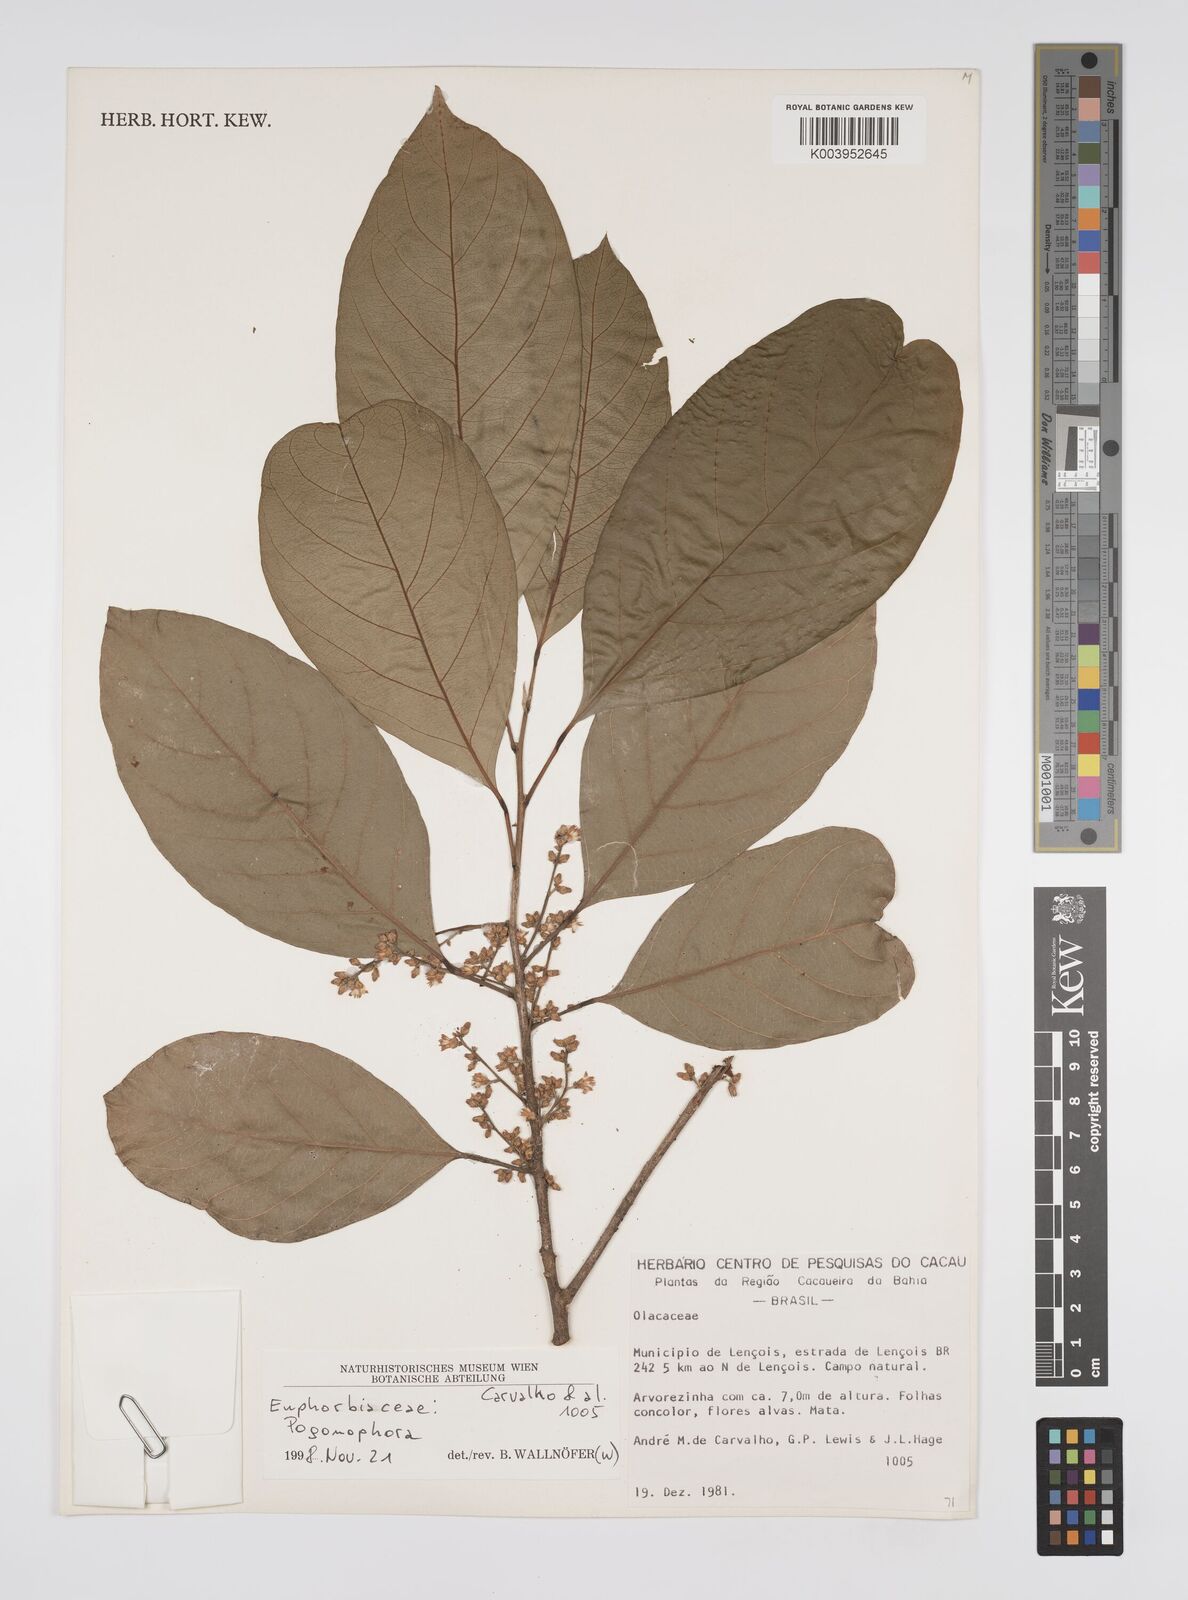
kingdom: Plantae
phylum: Tracheophyta
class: Magnoliopsida
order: Malpighiales
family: Peraceae
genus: Pogonophora
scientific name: Pogonophora
